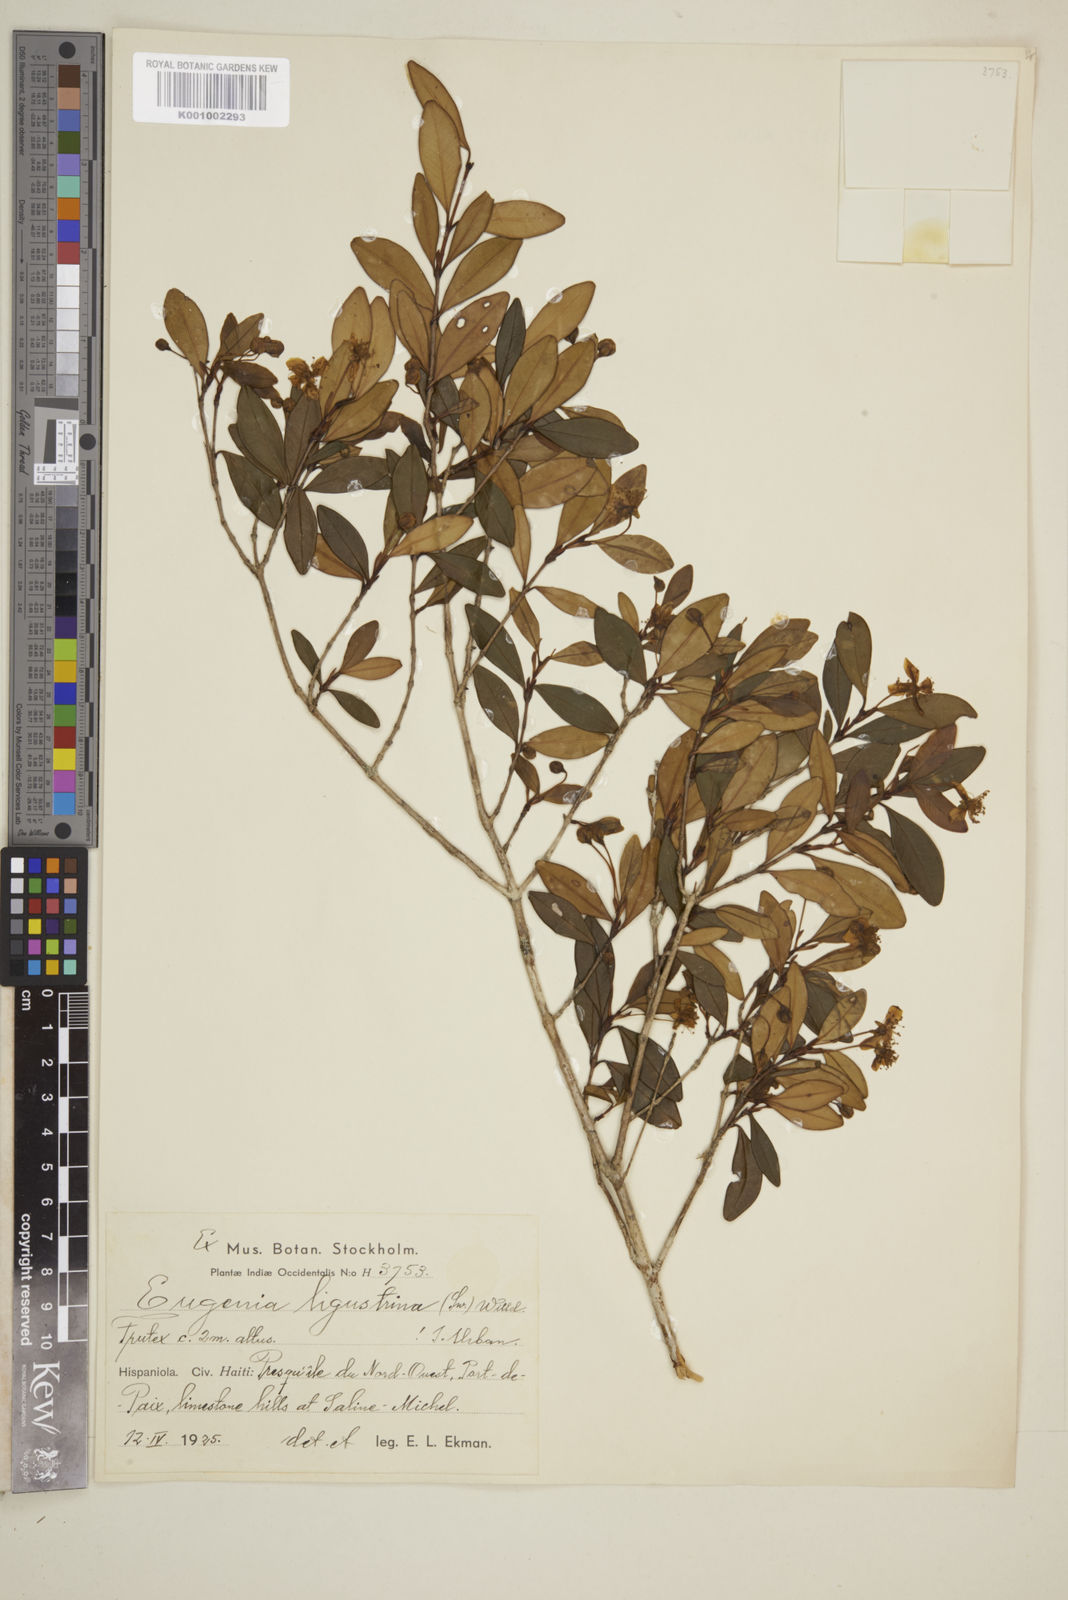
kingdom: Plantae
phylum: Tracheophyta
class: Magnoliopsida
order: Myrtales
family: Myrtaceae
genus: Eugenia
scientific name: Eugenia ligustrina
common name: Privet stopper
